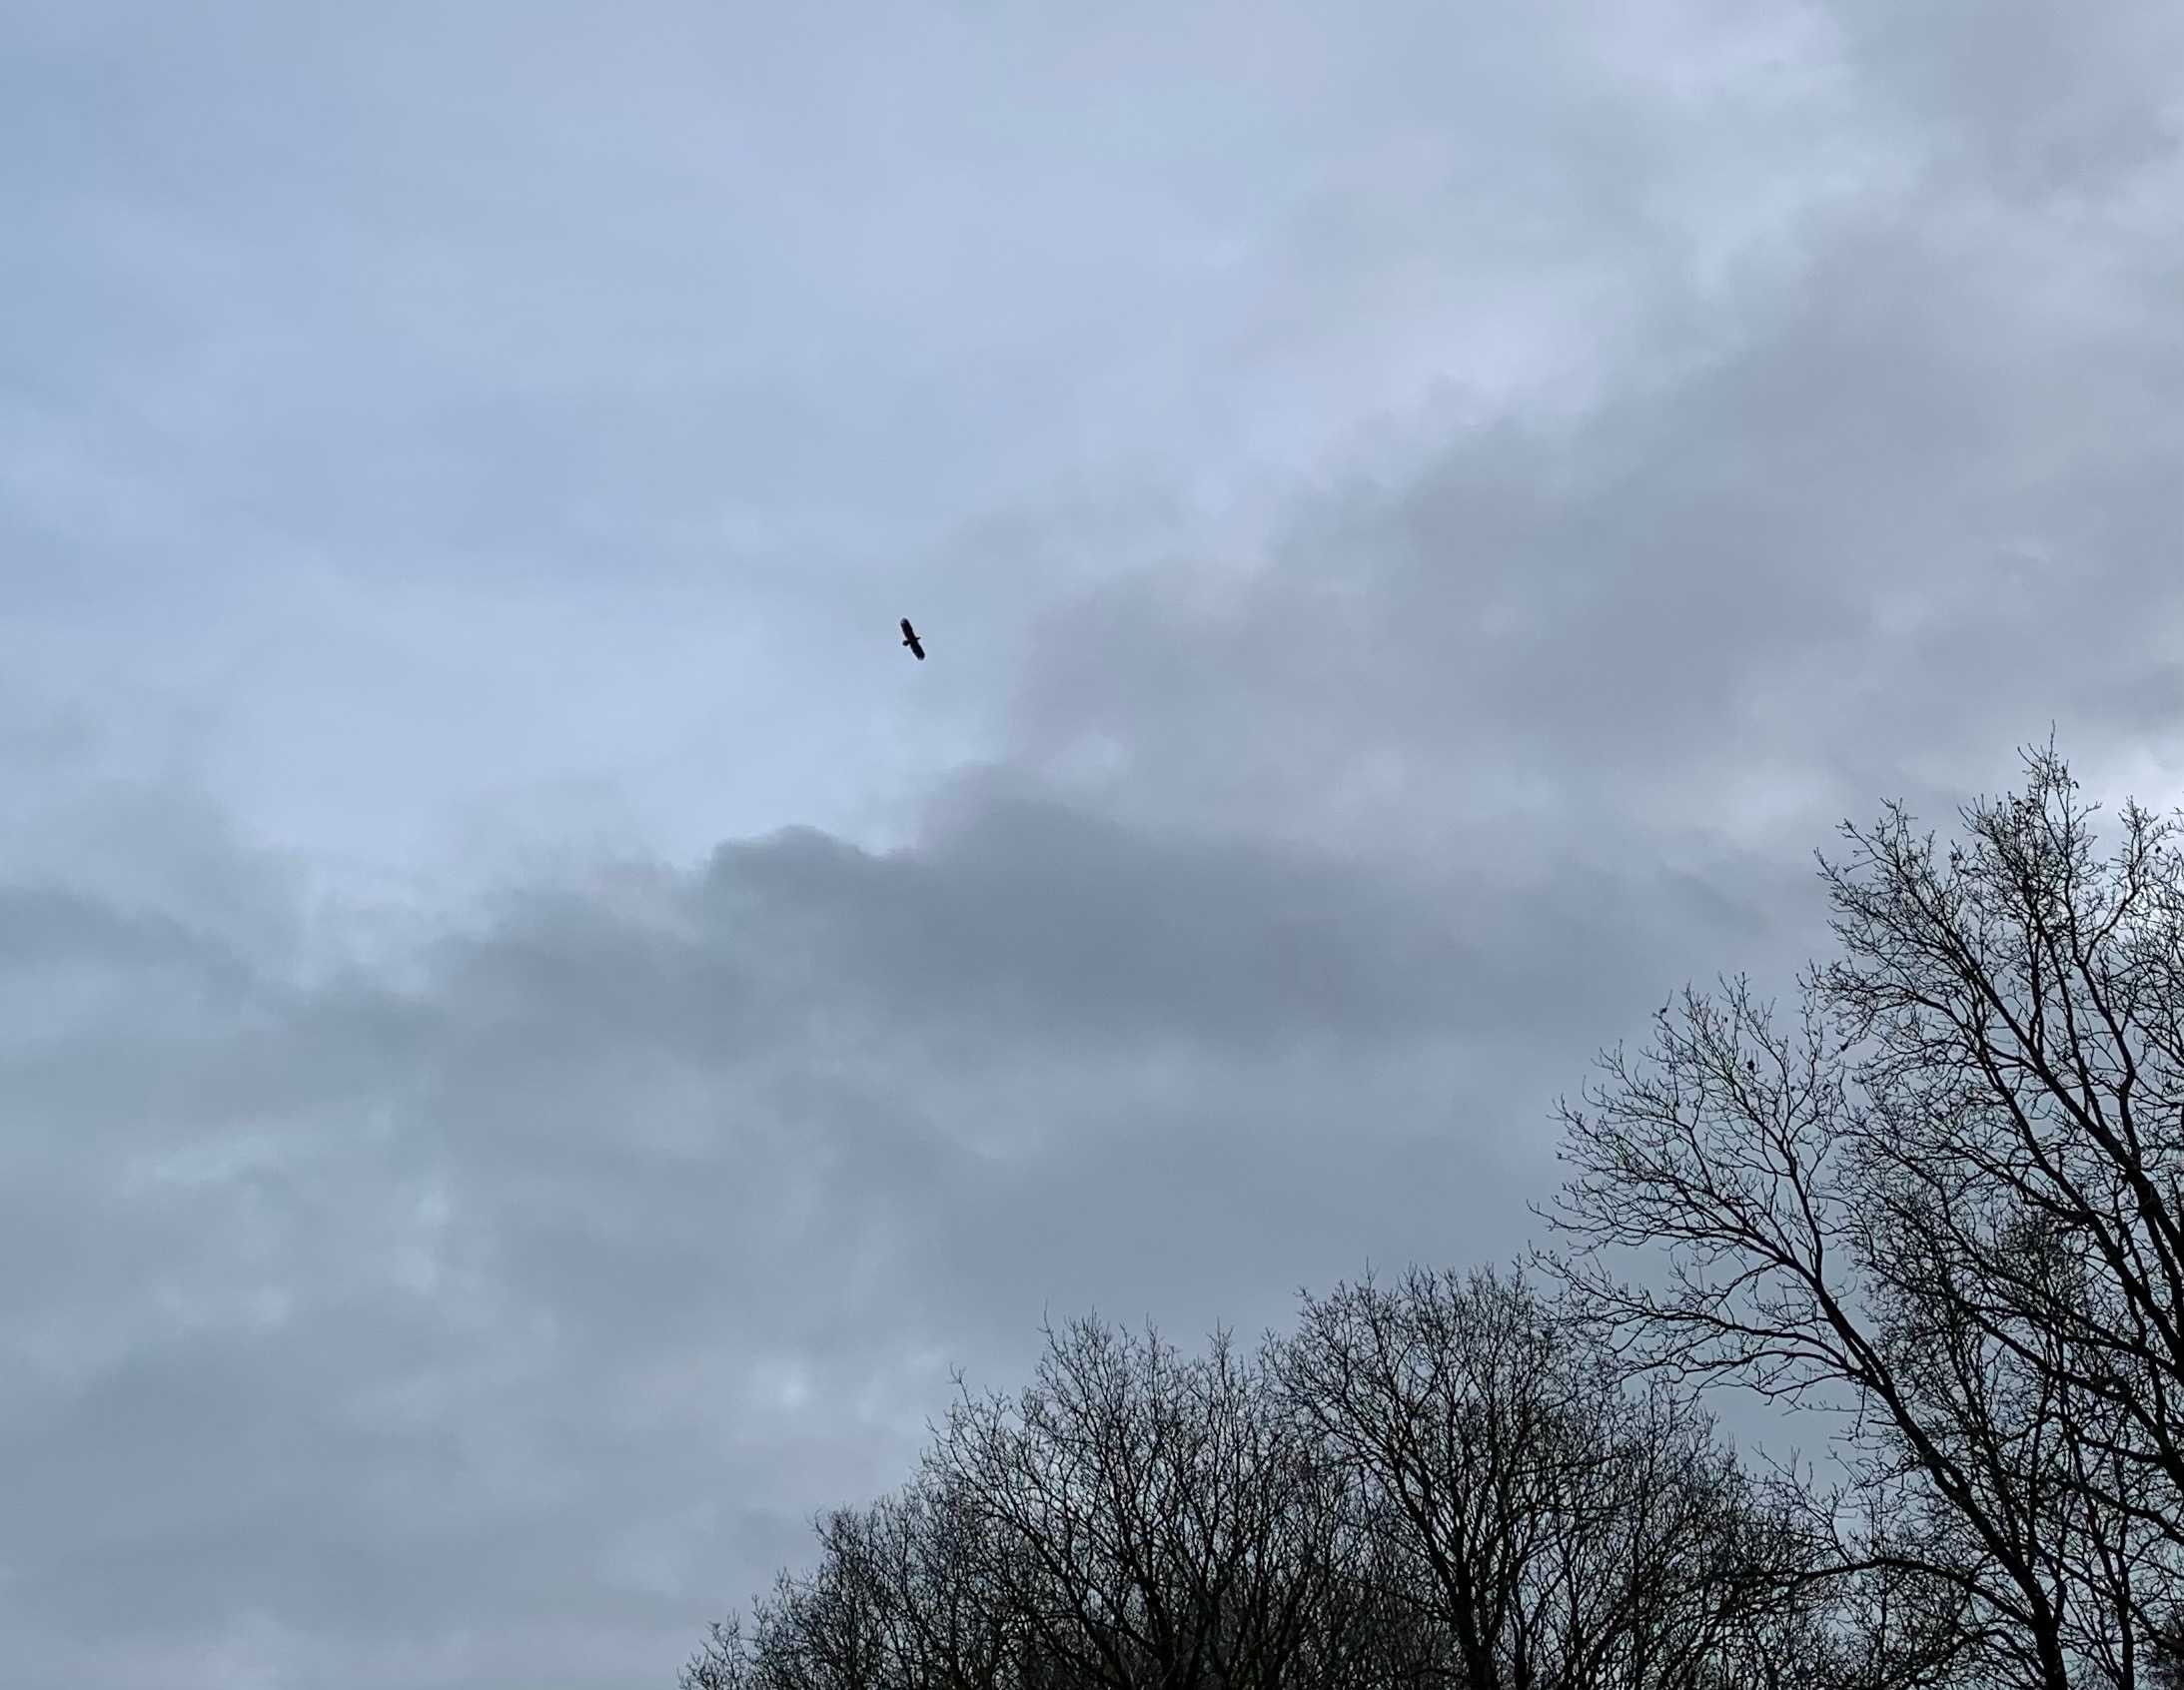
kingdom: Animalia
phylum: Chordata
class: Aves
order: Accipitriformes
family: Accipitridae
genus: Haliaeetus
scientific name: Haliaeetus albicilla
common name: Havørn
